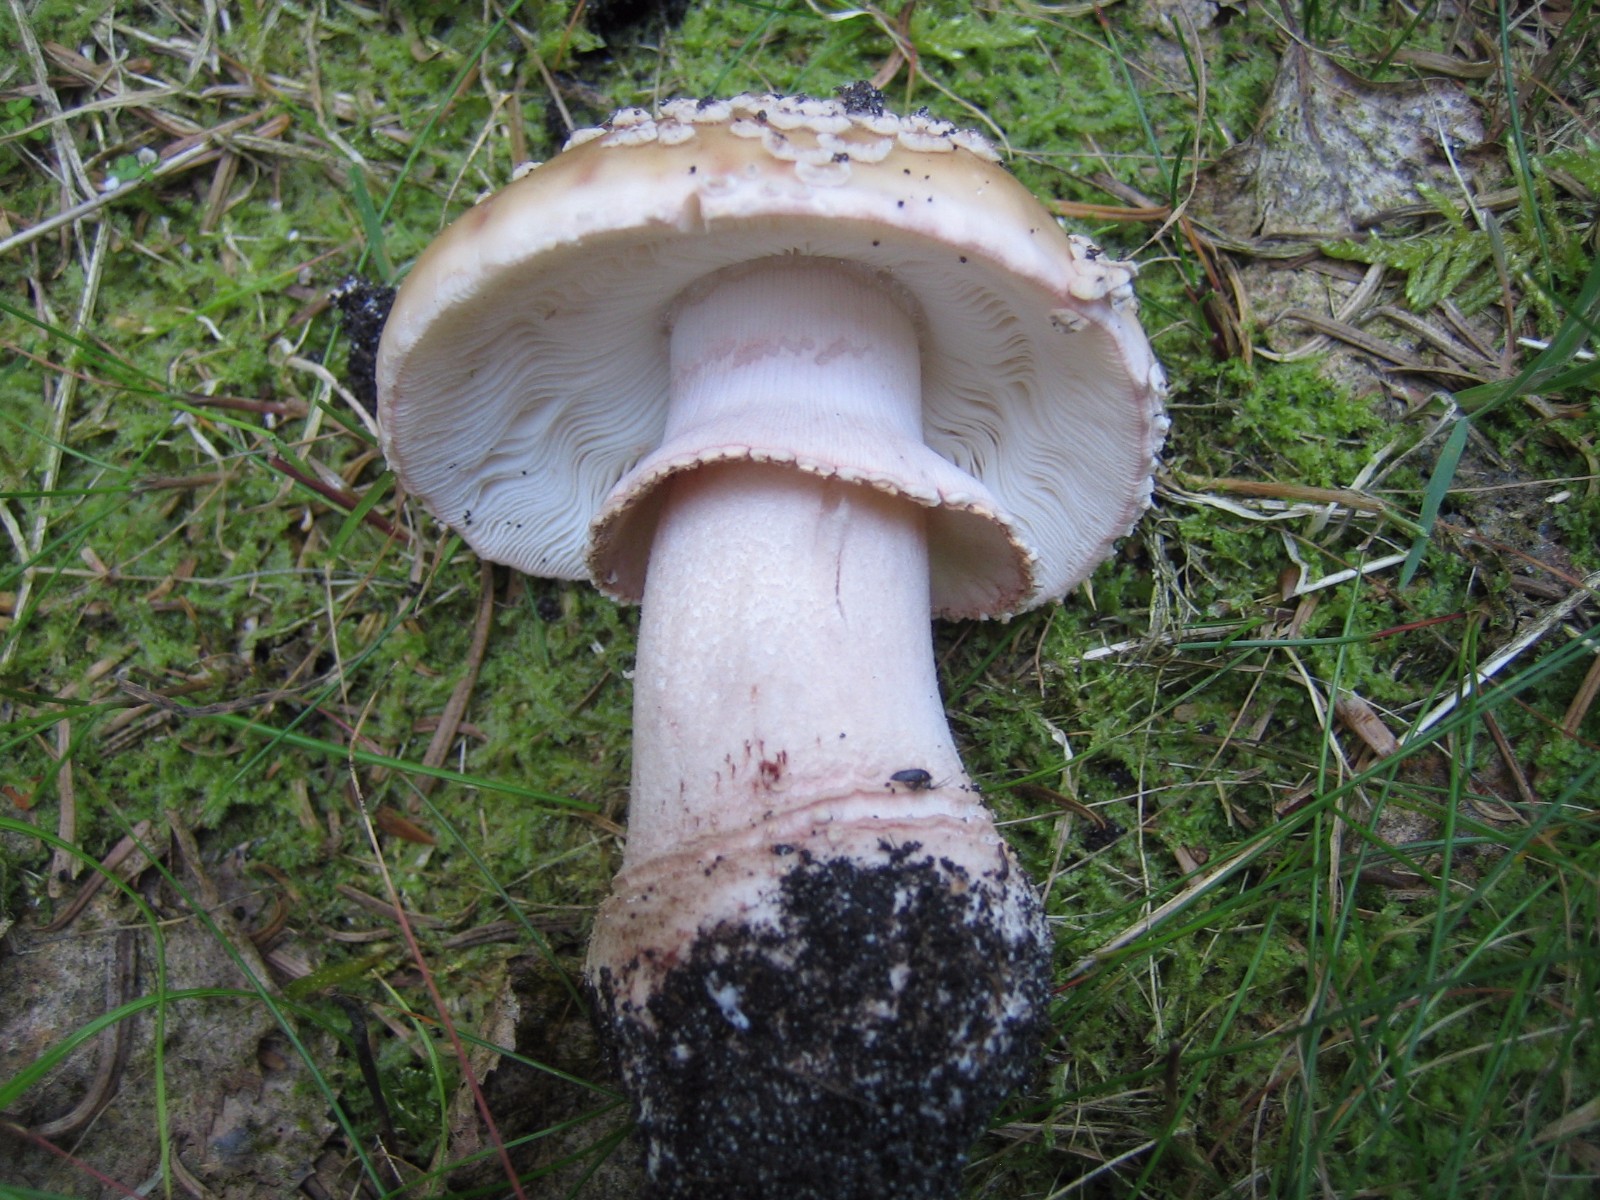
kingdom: Fungi
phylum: Basidiomycota
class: Agaricomycetes
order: Agaricales
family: Amanitaceae
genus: Amanita
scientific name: Amanita rubescens
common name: rødmende fluesvamp
